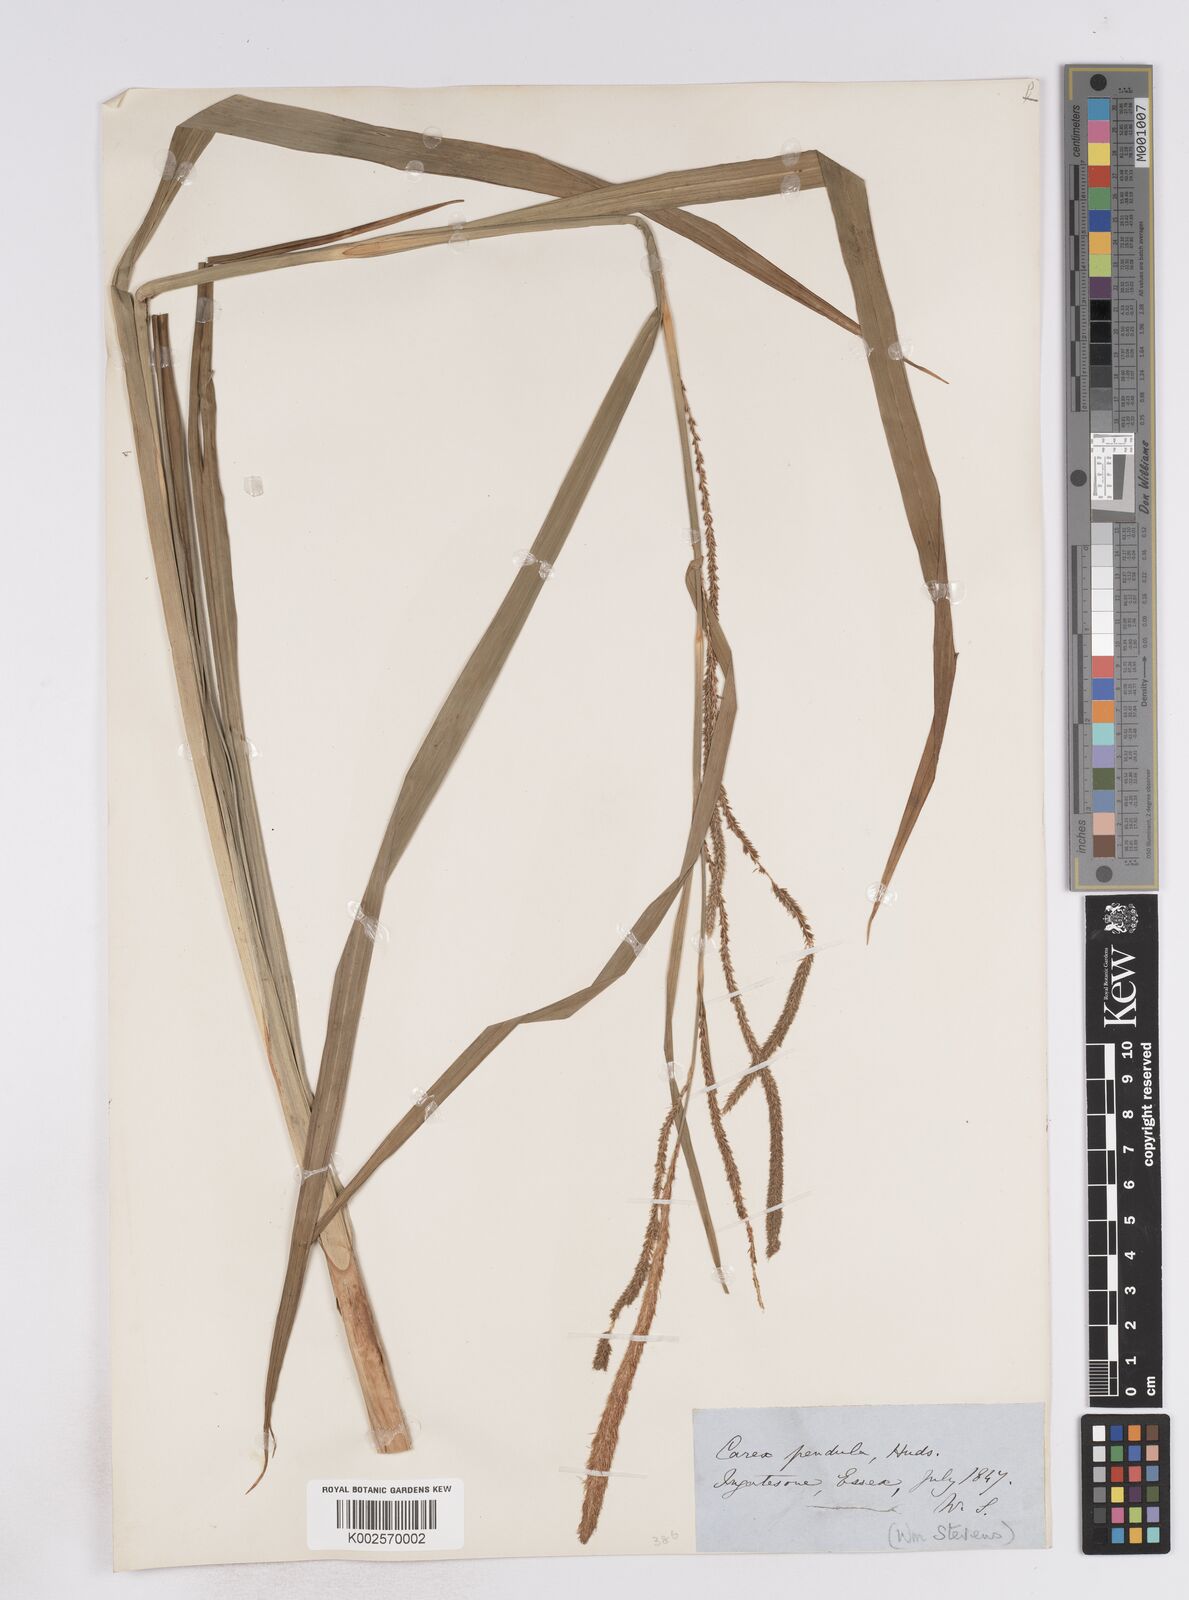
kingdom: Plantae
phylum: Tracheophyta
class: Liliopsida
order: Poales
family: Cyperaceae
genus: Carex
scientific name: Carex pendula
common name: Pendulous sedge
